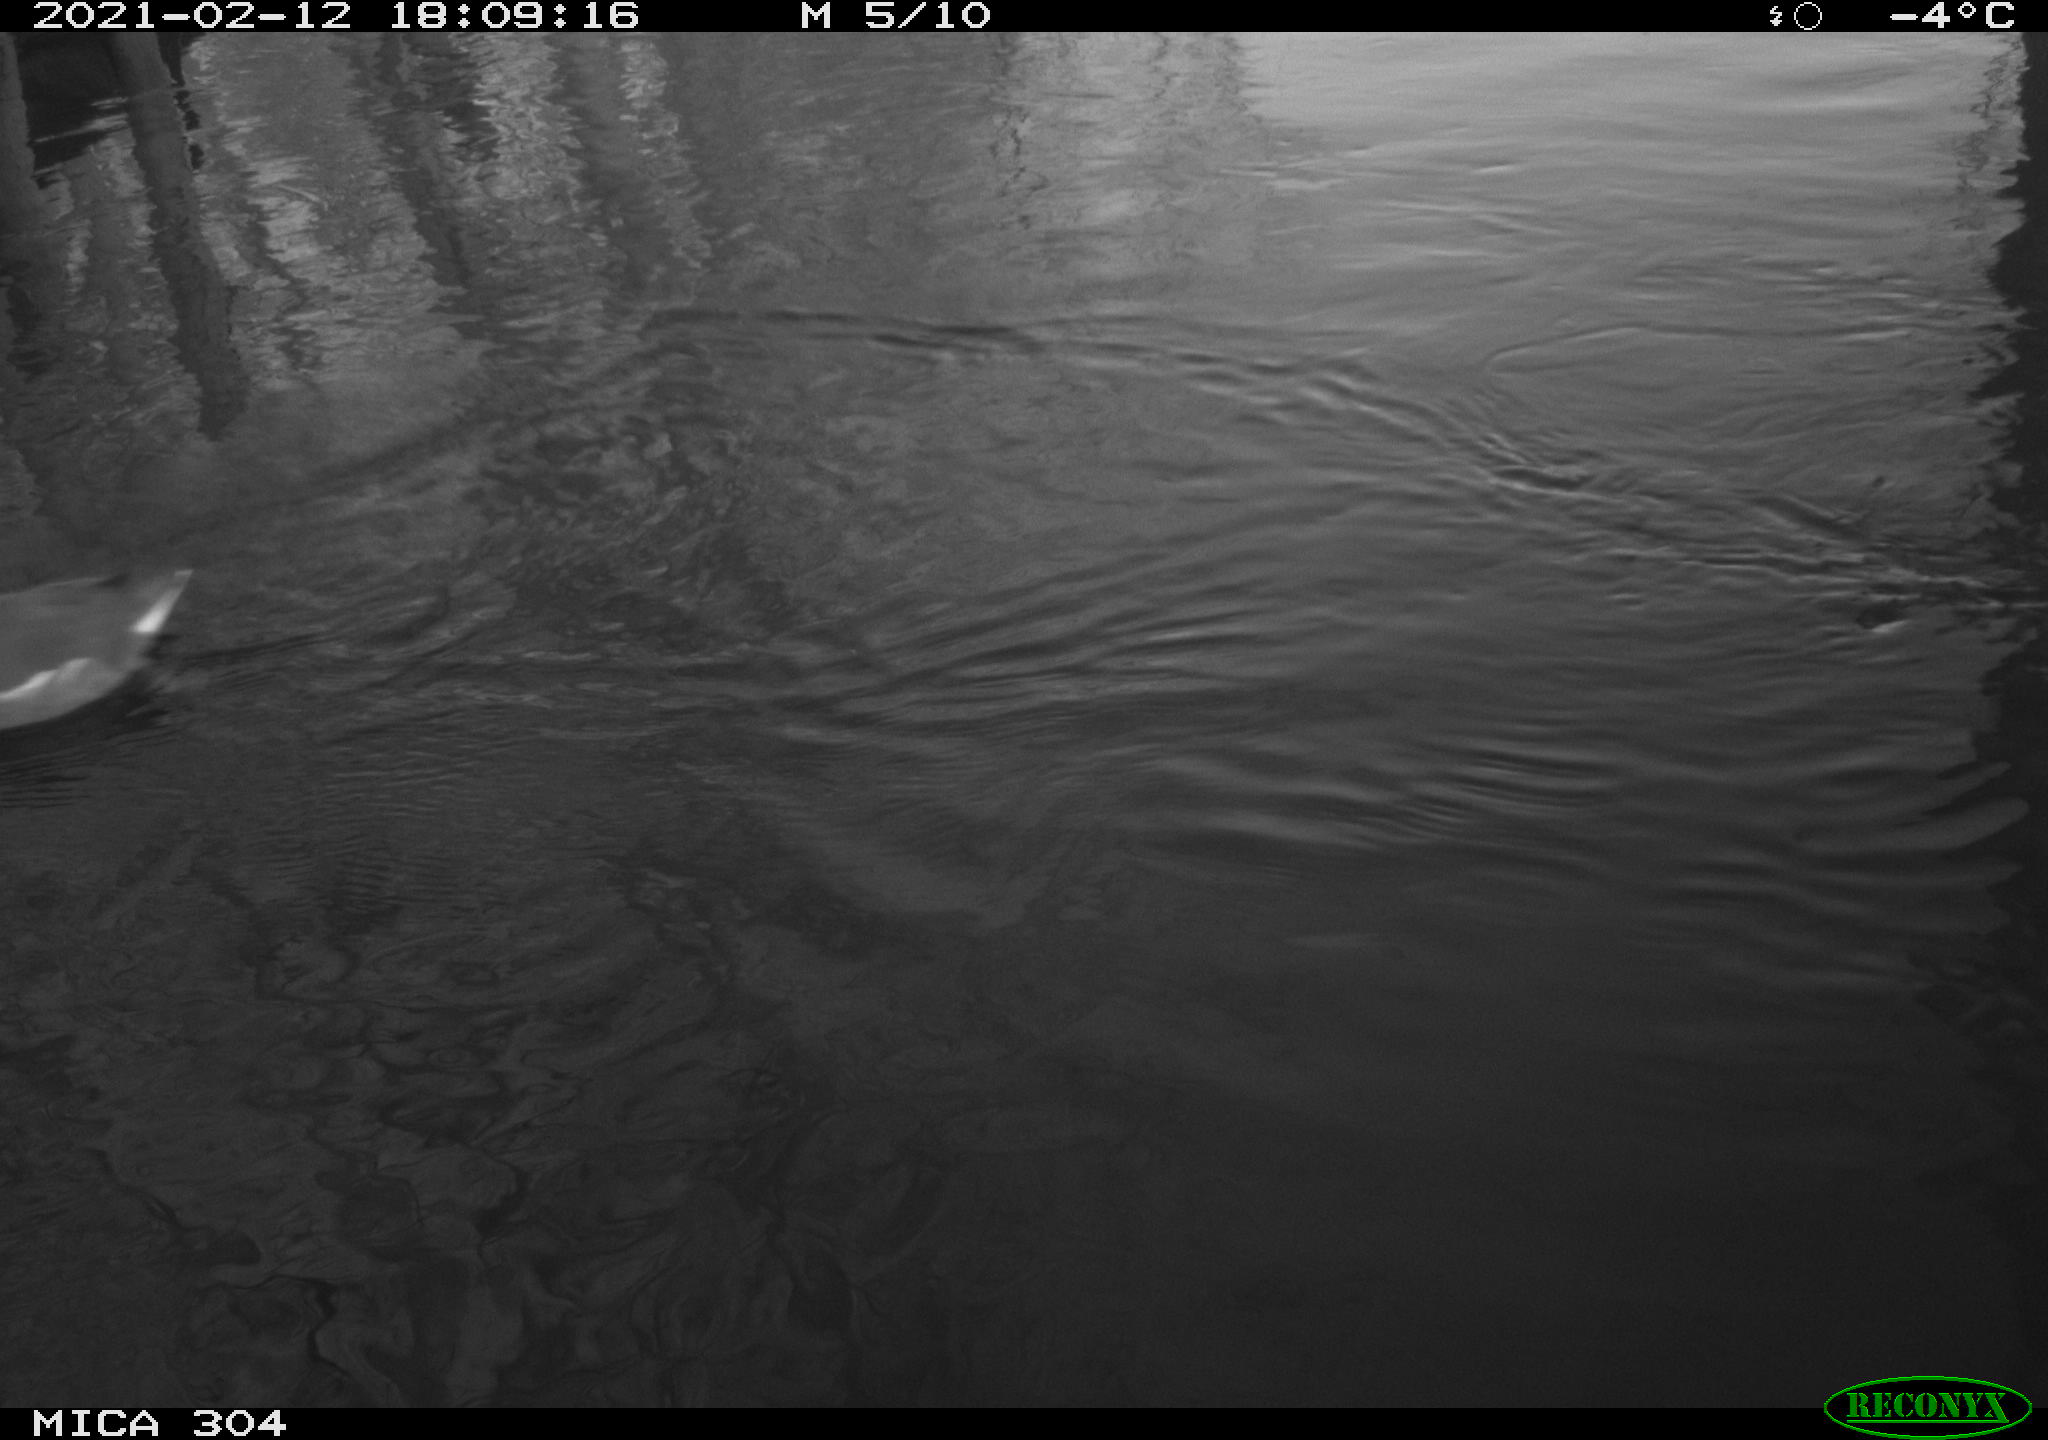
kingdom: Animalia
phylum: Chordata
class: Aves
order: Gruiformes
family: Rallidae
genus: Gallinula
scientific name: Gallinula chloropus
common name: Common moorhen
